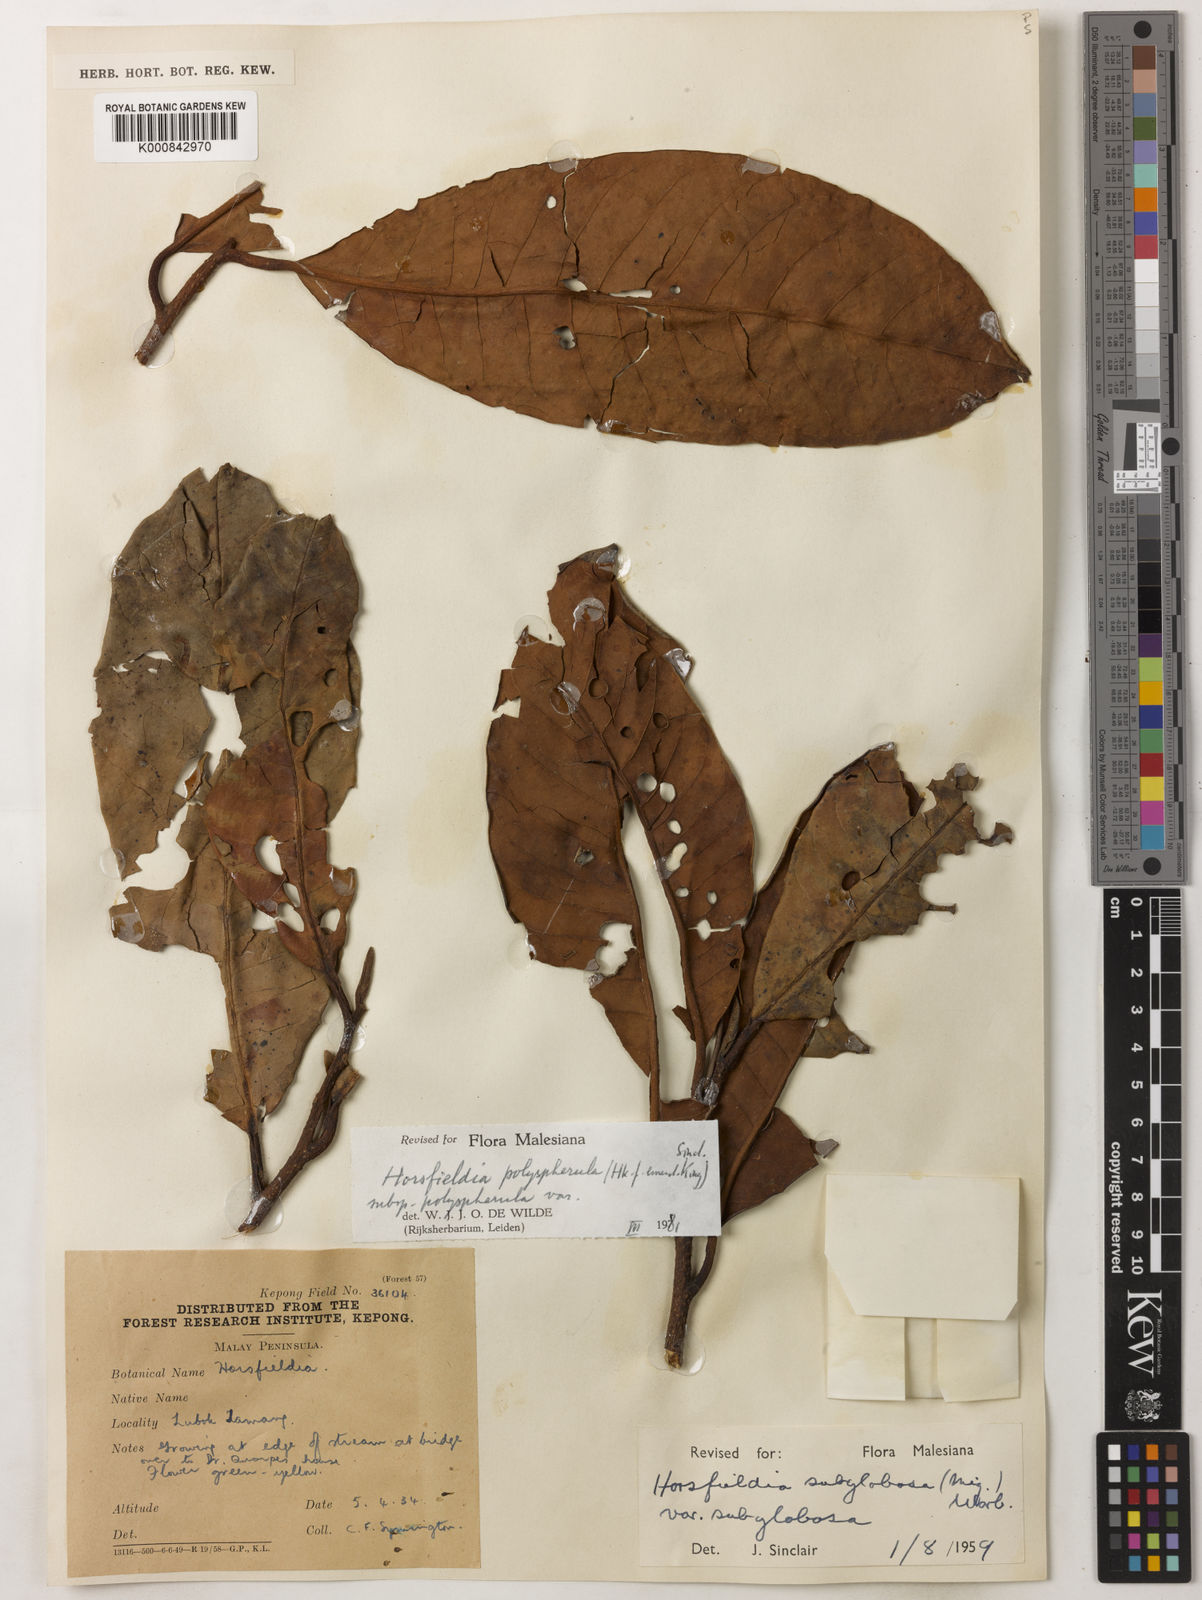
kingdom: Plantae
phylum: Tracheophyta
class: Magnoliopsida
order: Magnoliales
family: Myristicaceae
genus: Horsfieldia
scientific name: Horsfieldia
